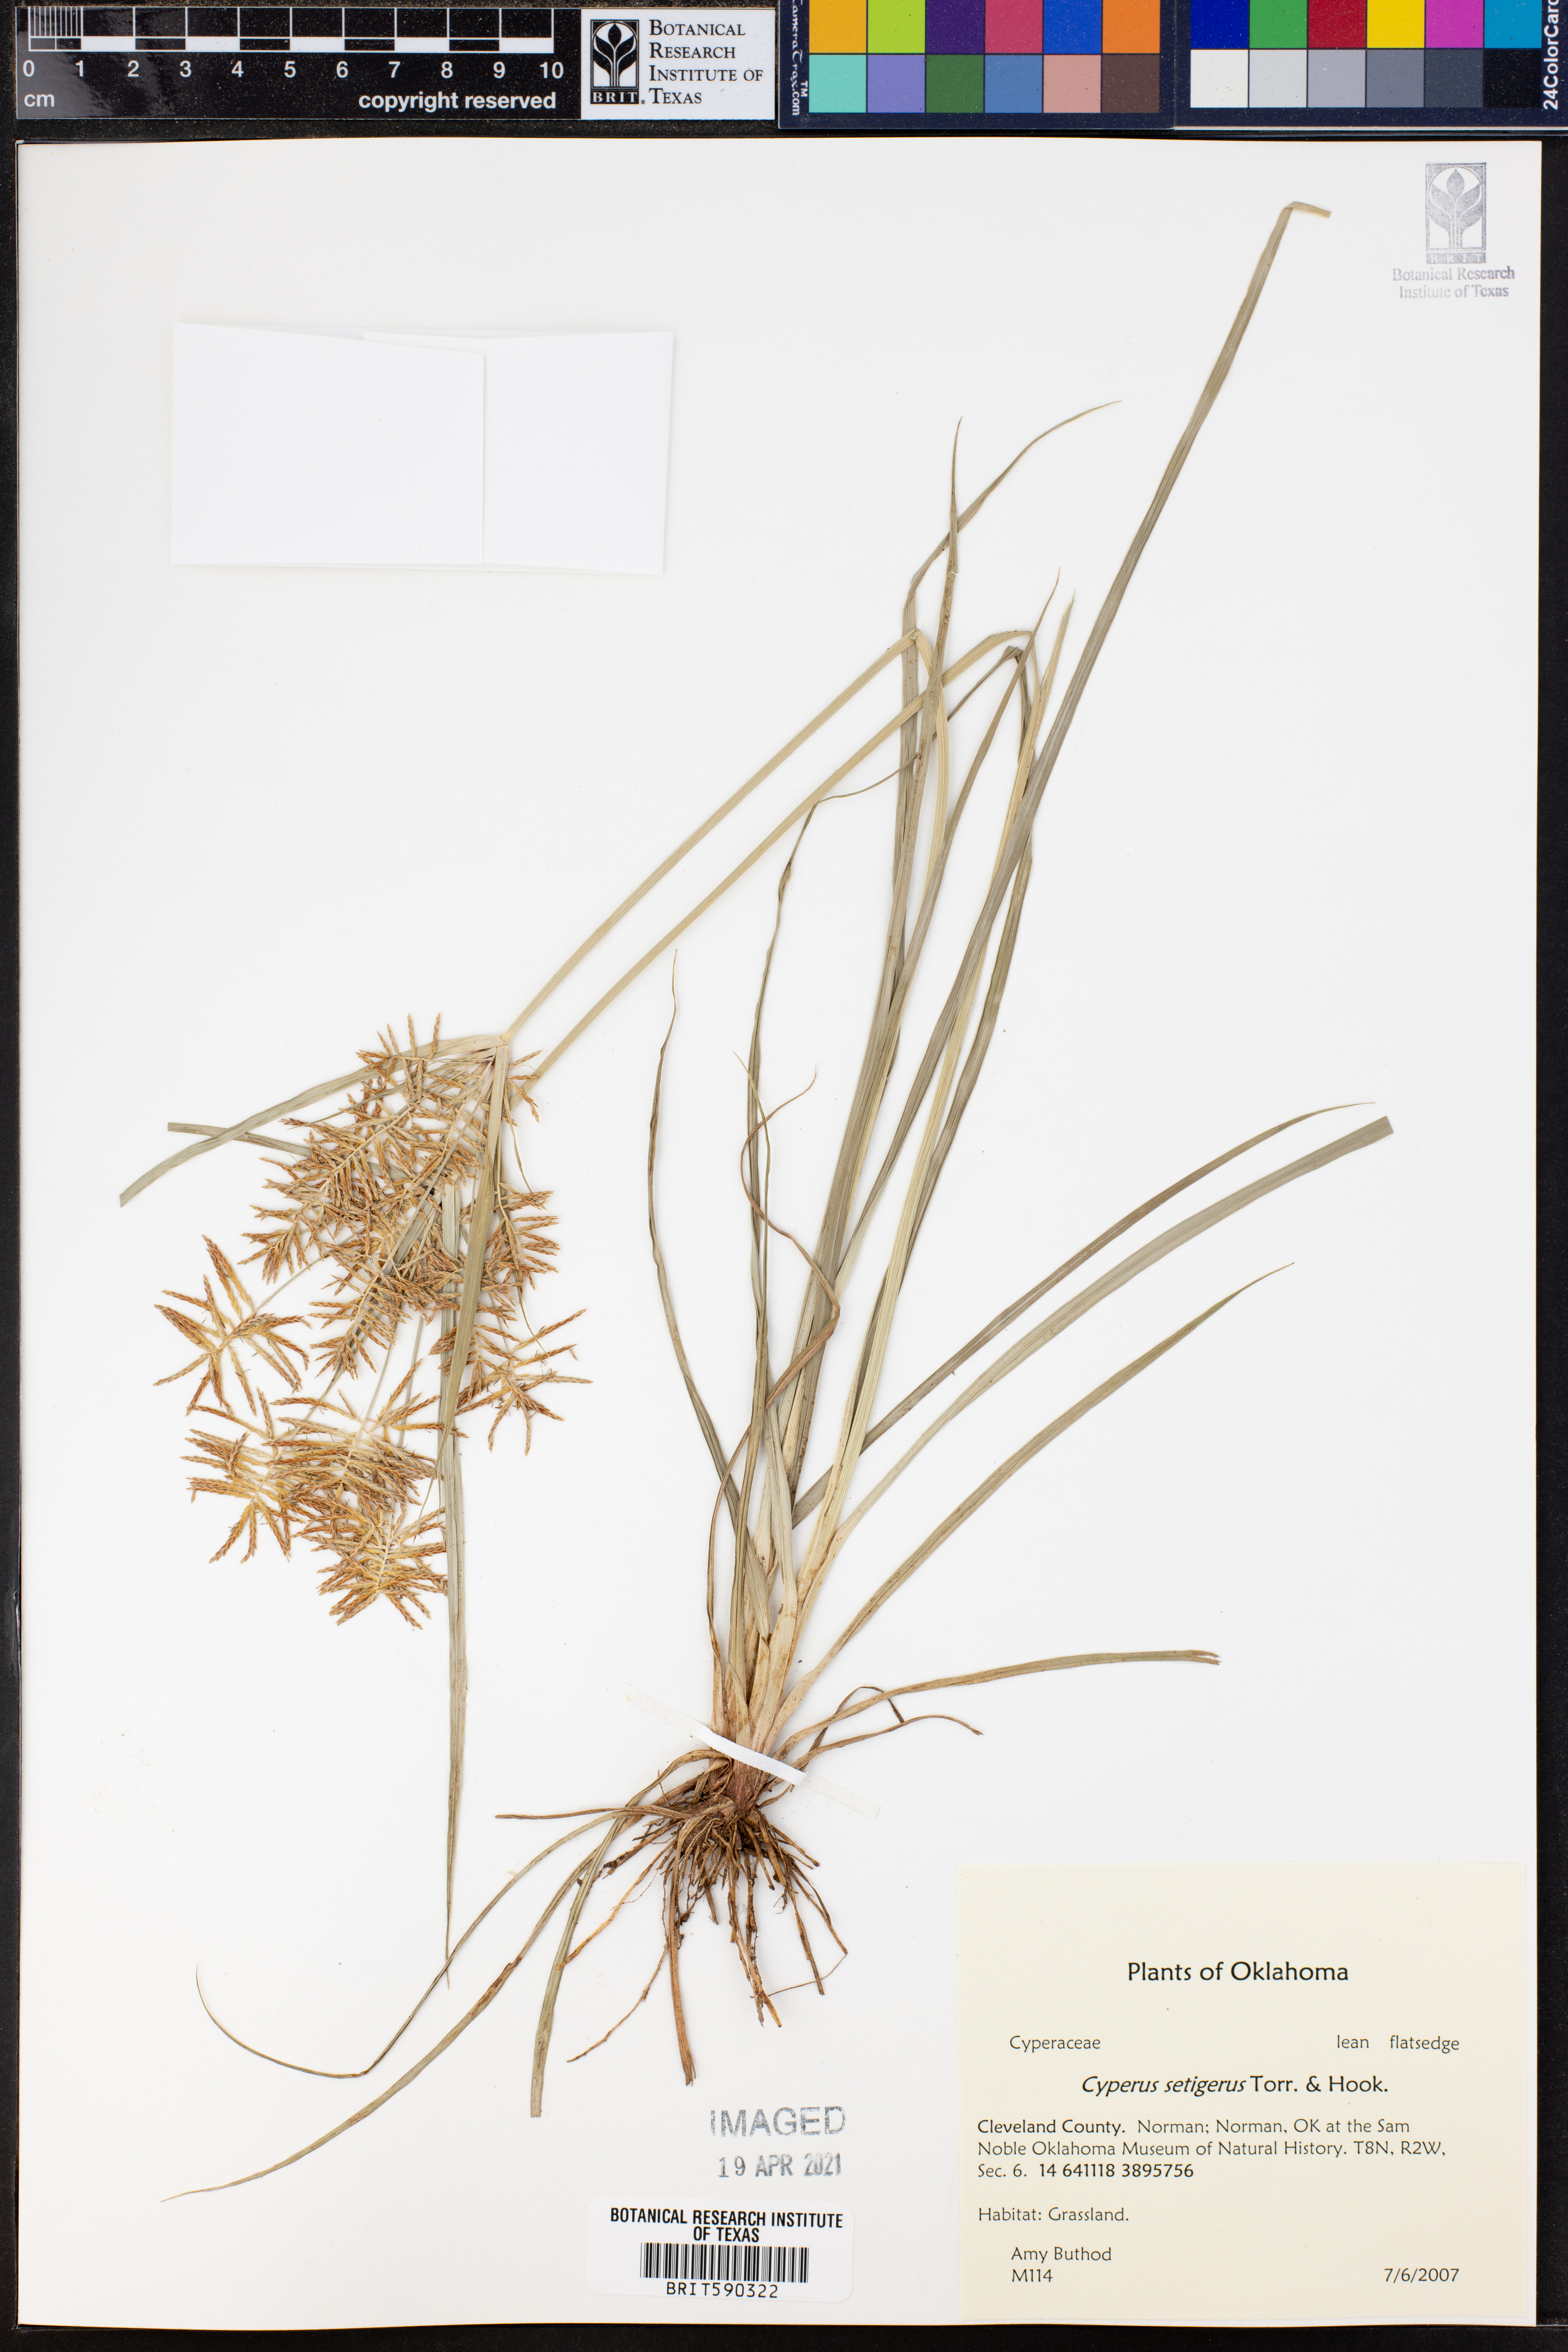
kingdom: Plantae
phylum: Tracheophyta
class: Liliopsida
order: Poales
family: Cyperaceae
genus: Cyperus
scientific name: Cyperus setigerus
